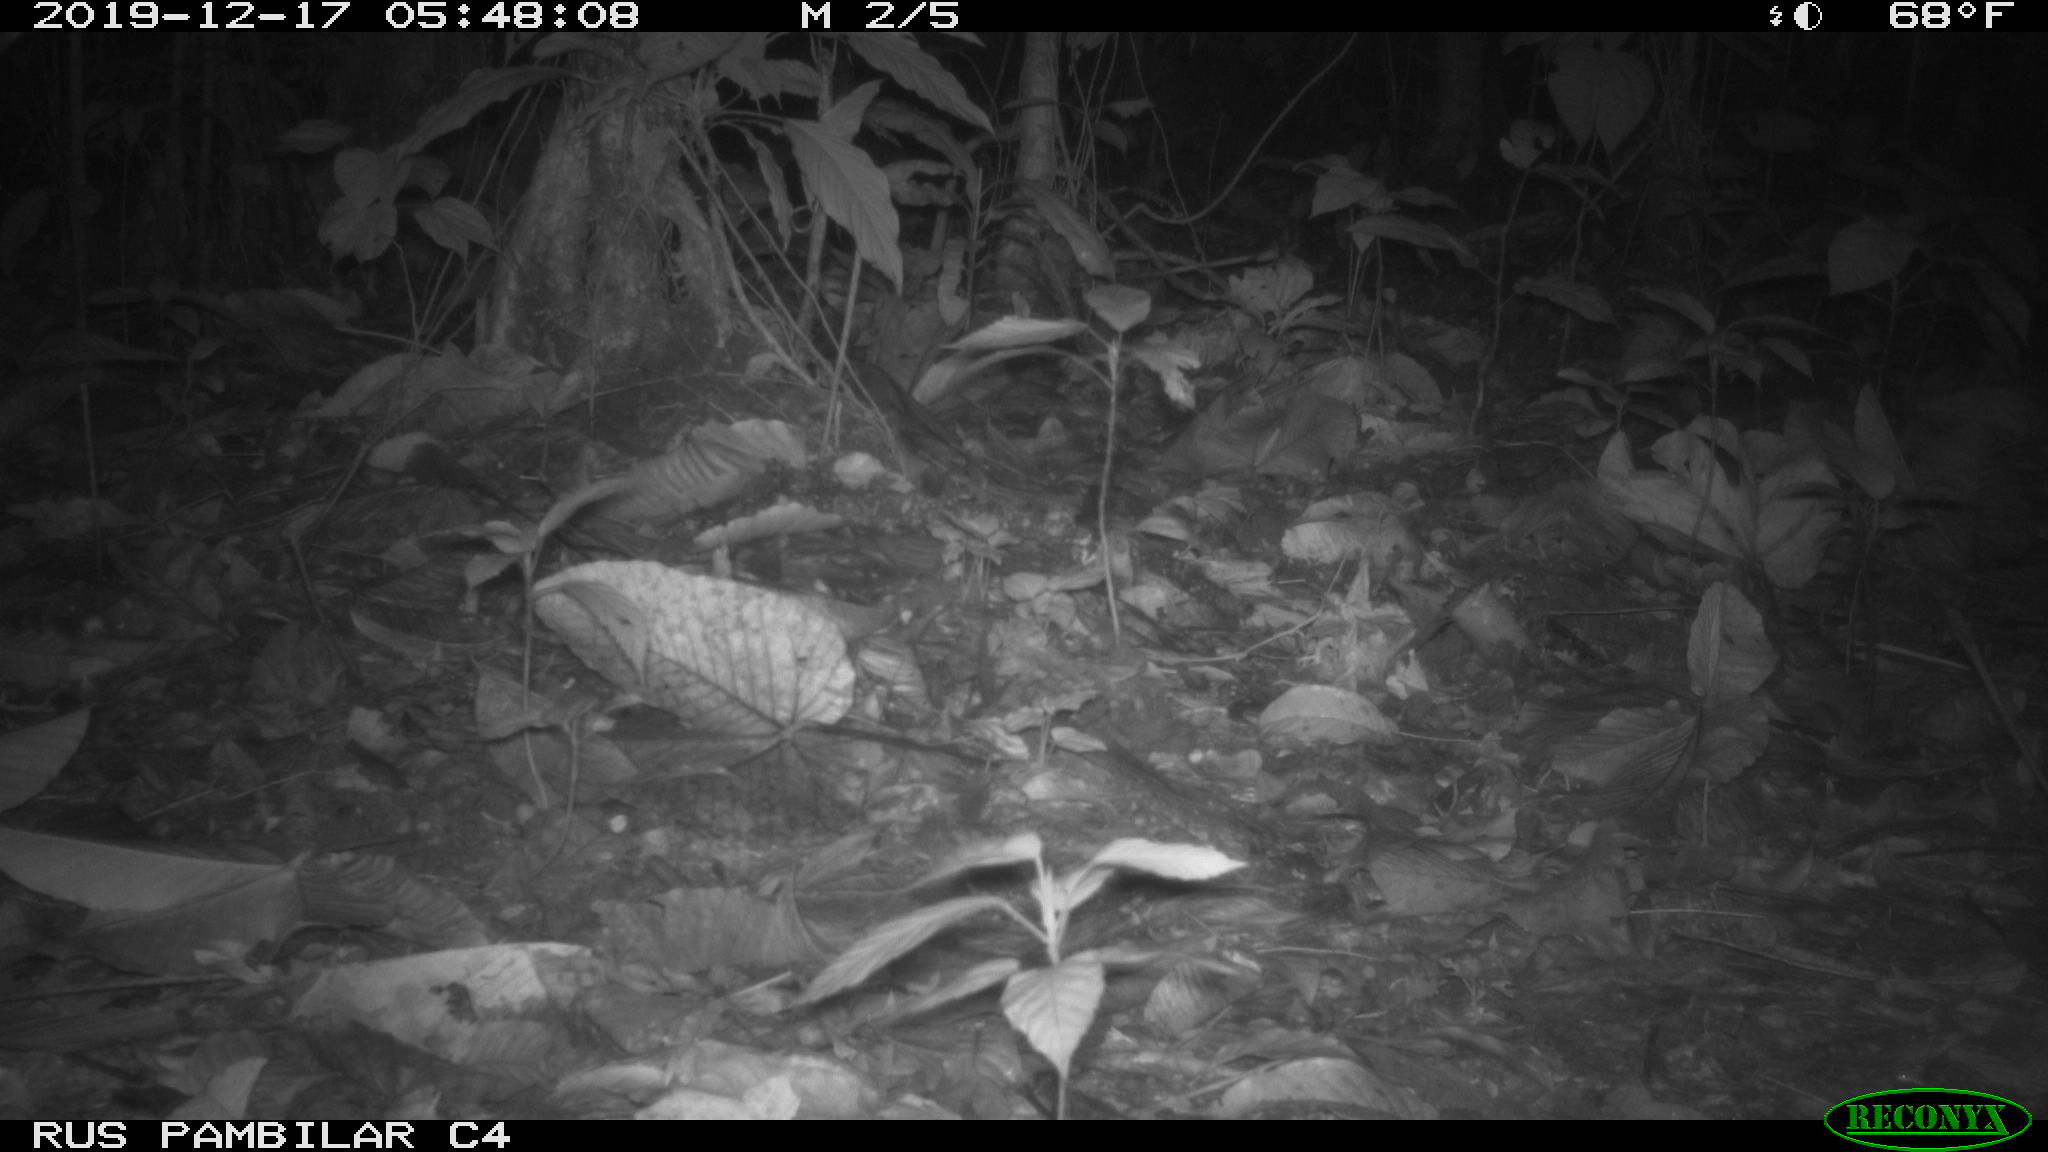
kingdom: Animalia
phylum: Chordata
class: Mammalia
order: Rodentia
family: Echimyidae
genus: Proechimys
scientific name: Proechimys
